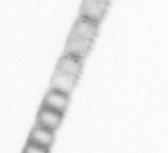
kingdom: Chromista
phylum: Ochrophyta
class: Bacillariophyceae
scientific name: Bacillariophyceae
